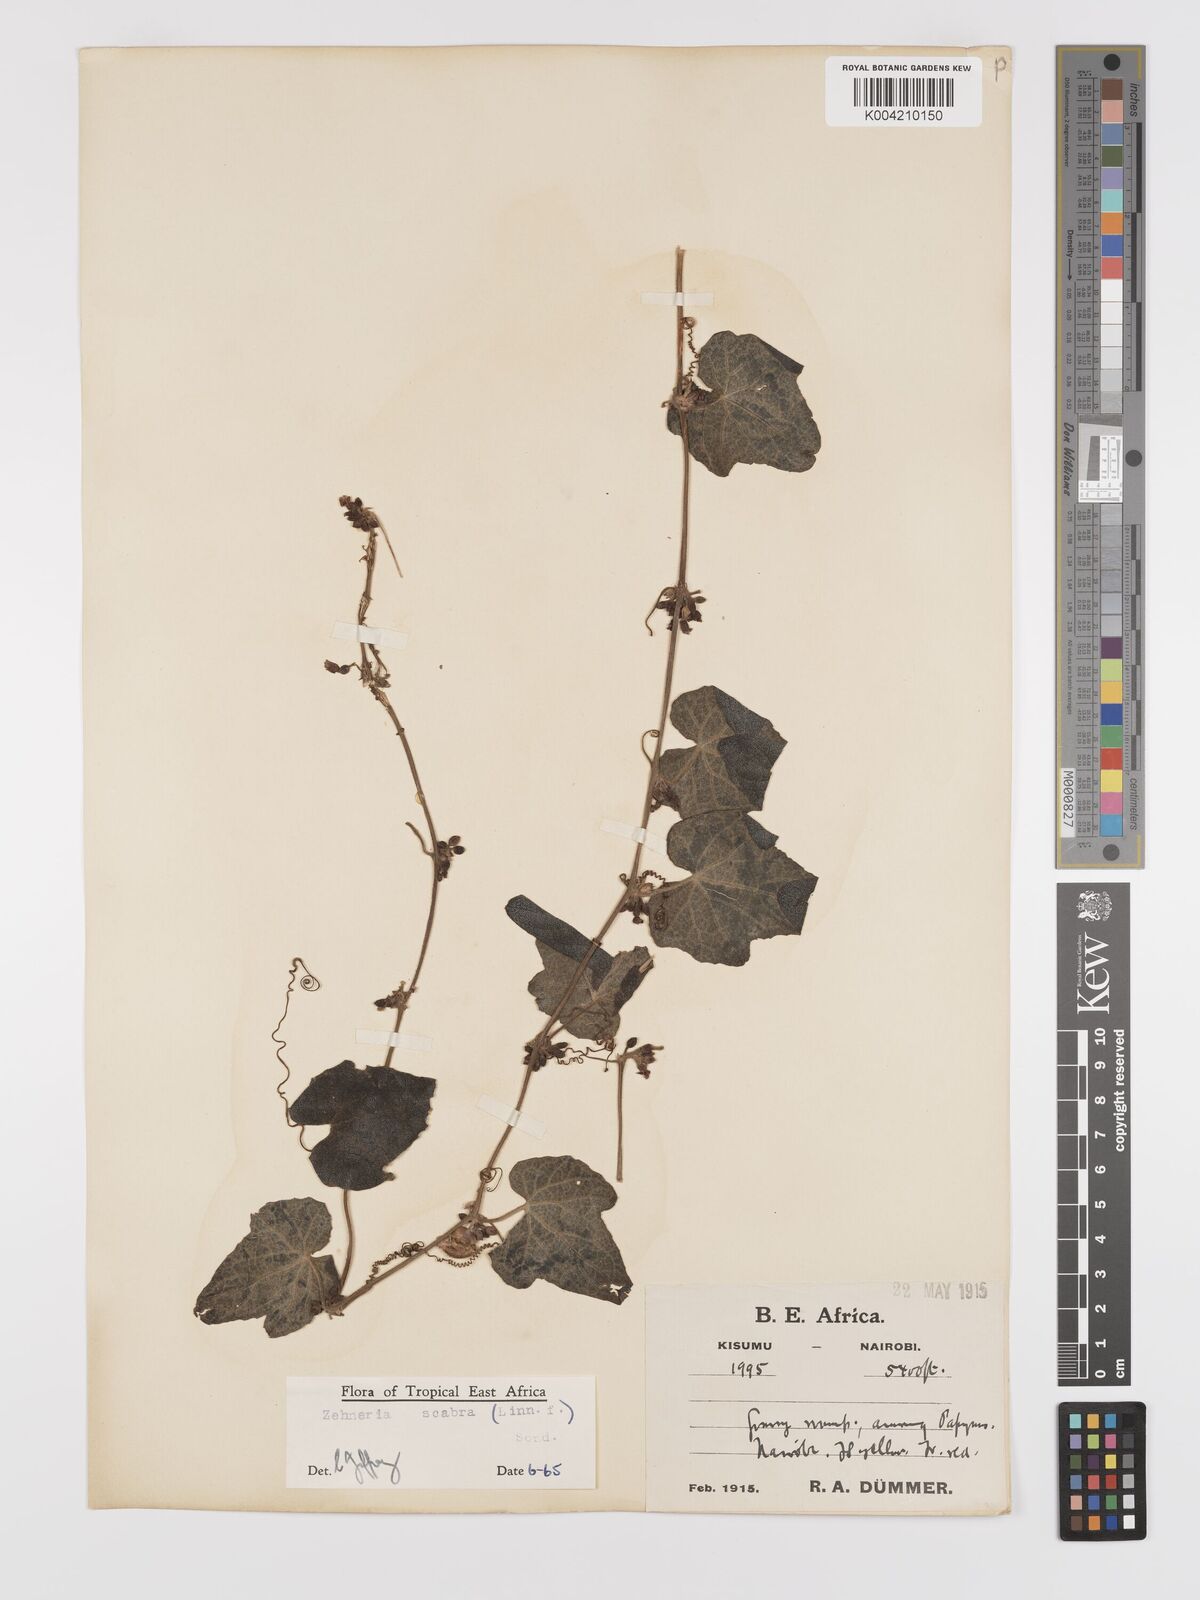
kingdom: Plantae
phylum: Tracheophyta
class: Magnoliopsida
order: Cucurbitales
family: Cucurbitaceae
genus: Zehneria
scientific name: Zehneria scabra
